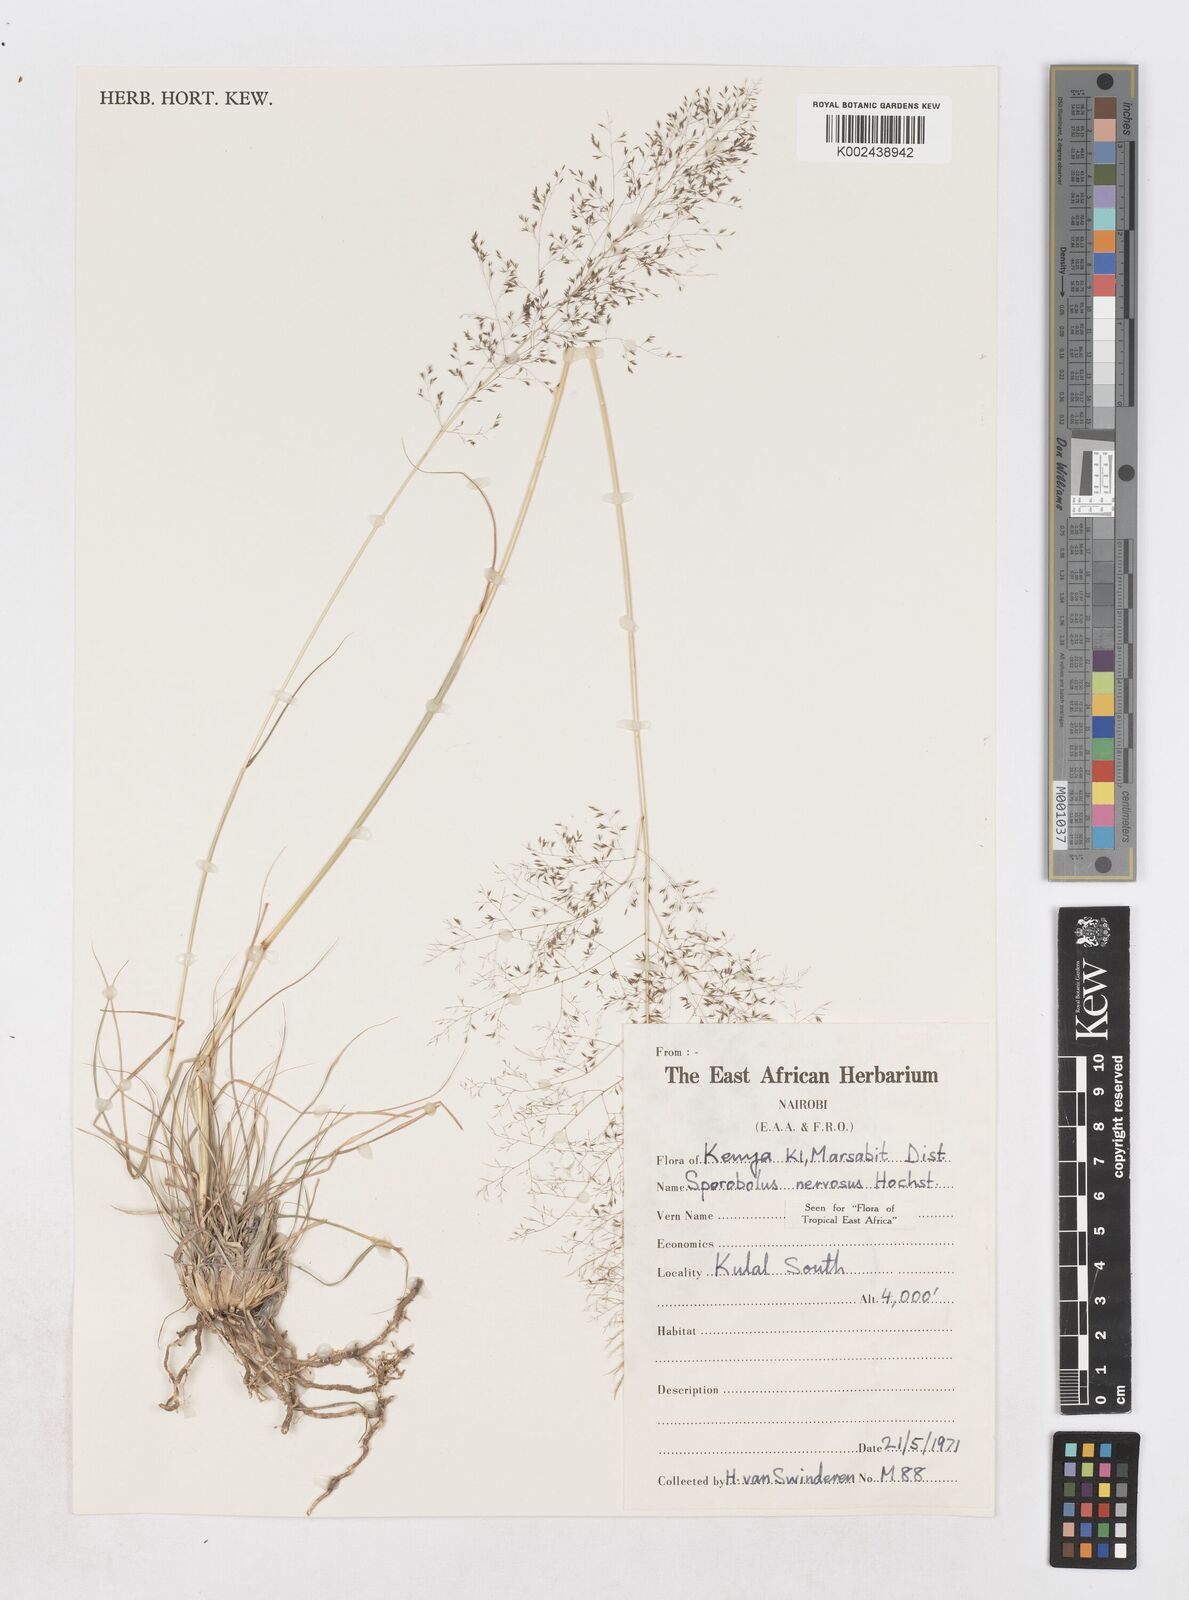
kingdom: Plantae
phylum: Tracheophyta
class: Liliopsida
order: Poales
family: Poaceae
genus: Sporobolus
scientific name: Sporobolus nervosus
